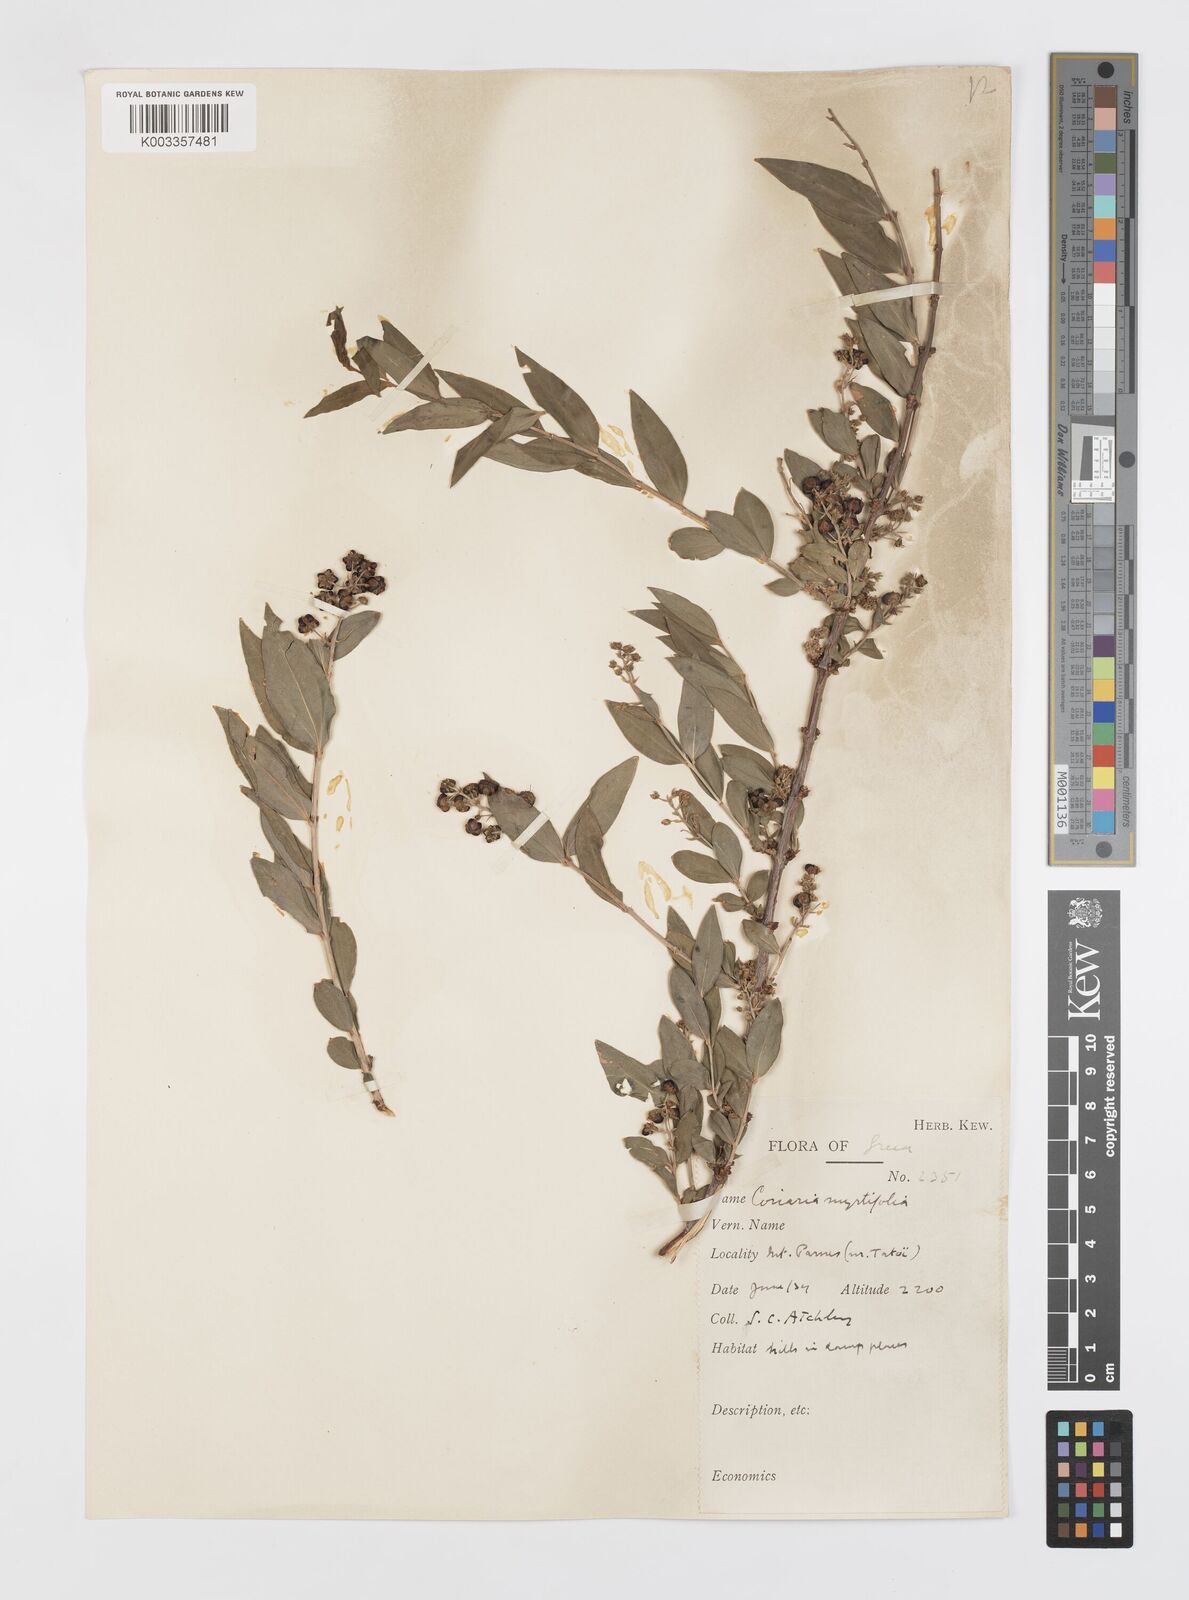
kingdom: Plantae
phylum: Tracheophyta
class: Magnoliopsida
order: Cucurbitales
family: Coriariaceae
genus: Coriaria
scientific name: Coriaria myrtifolia
